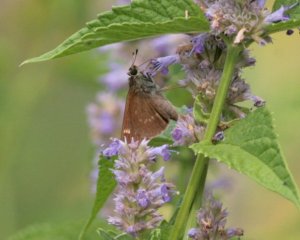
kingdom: Animalia
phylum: Arthropoda
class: Insecta
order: Lepidoptera
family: Hesperiidae
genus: Vernia
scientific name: Vernia verna
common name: Little Glassywing
